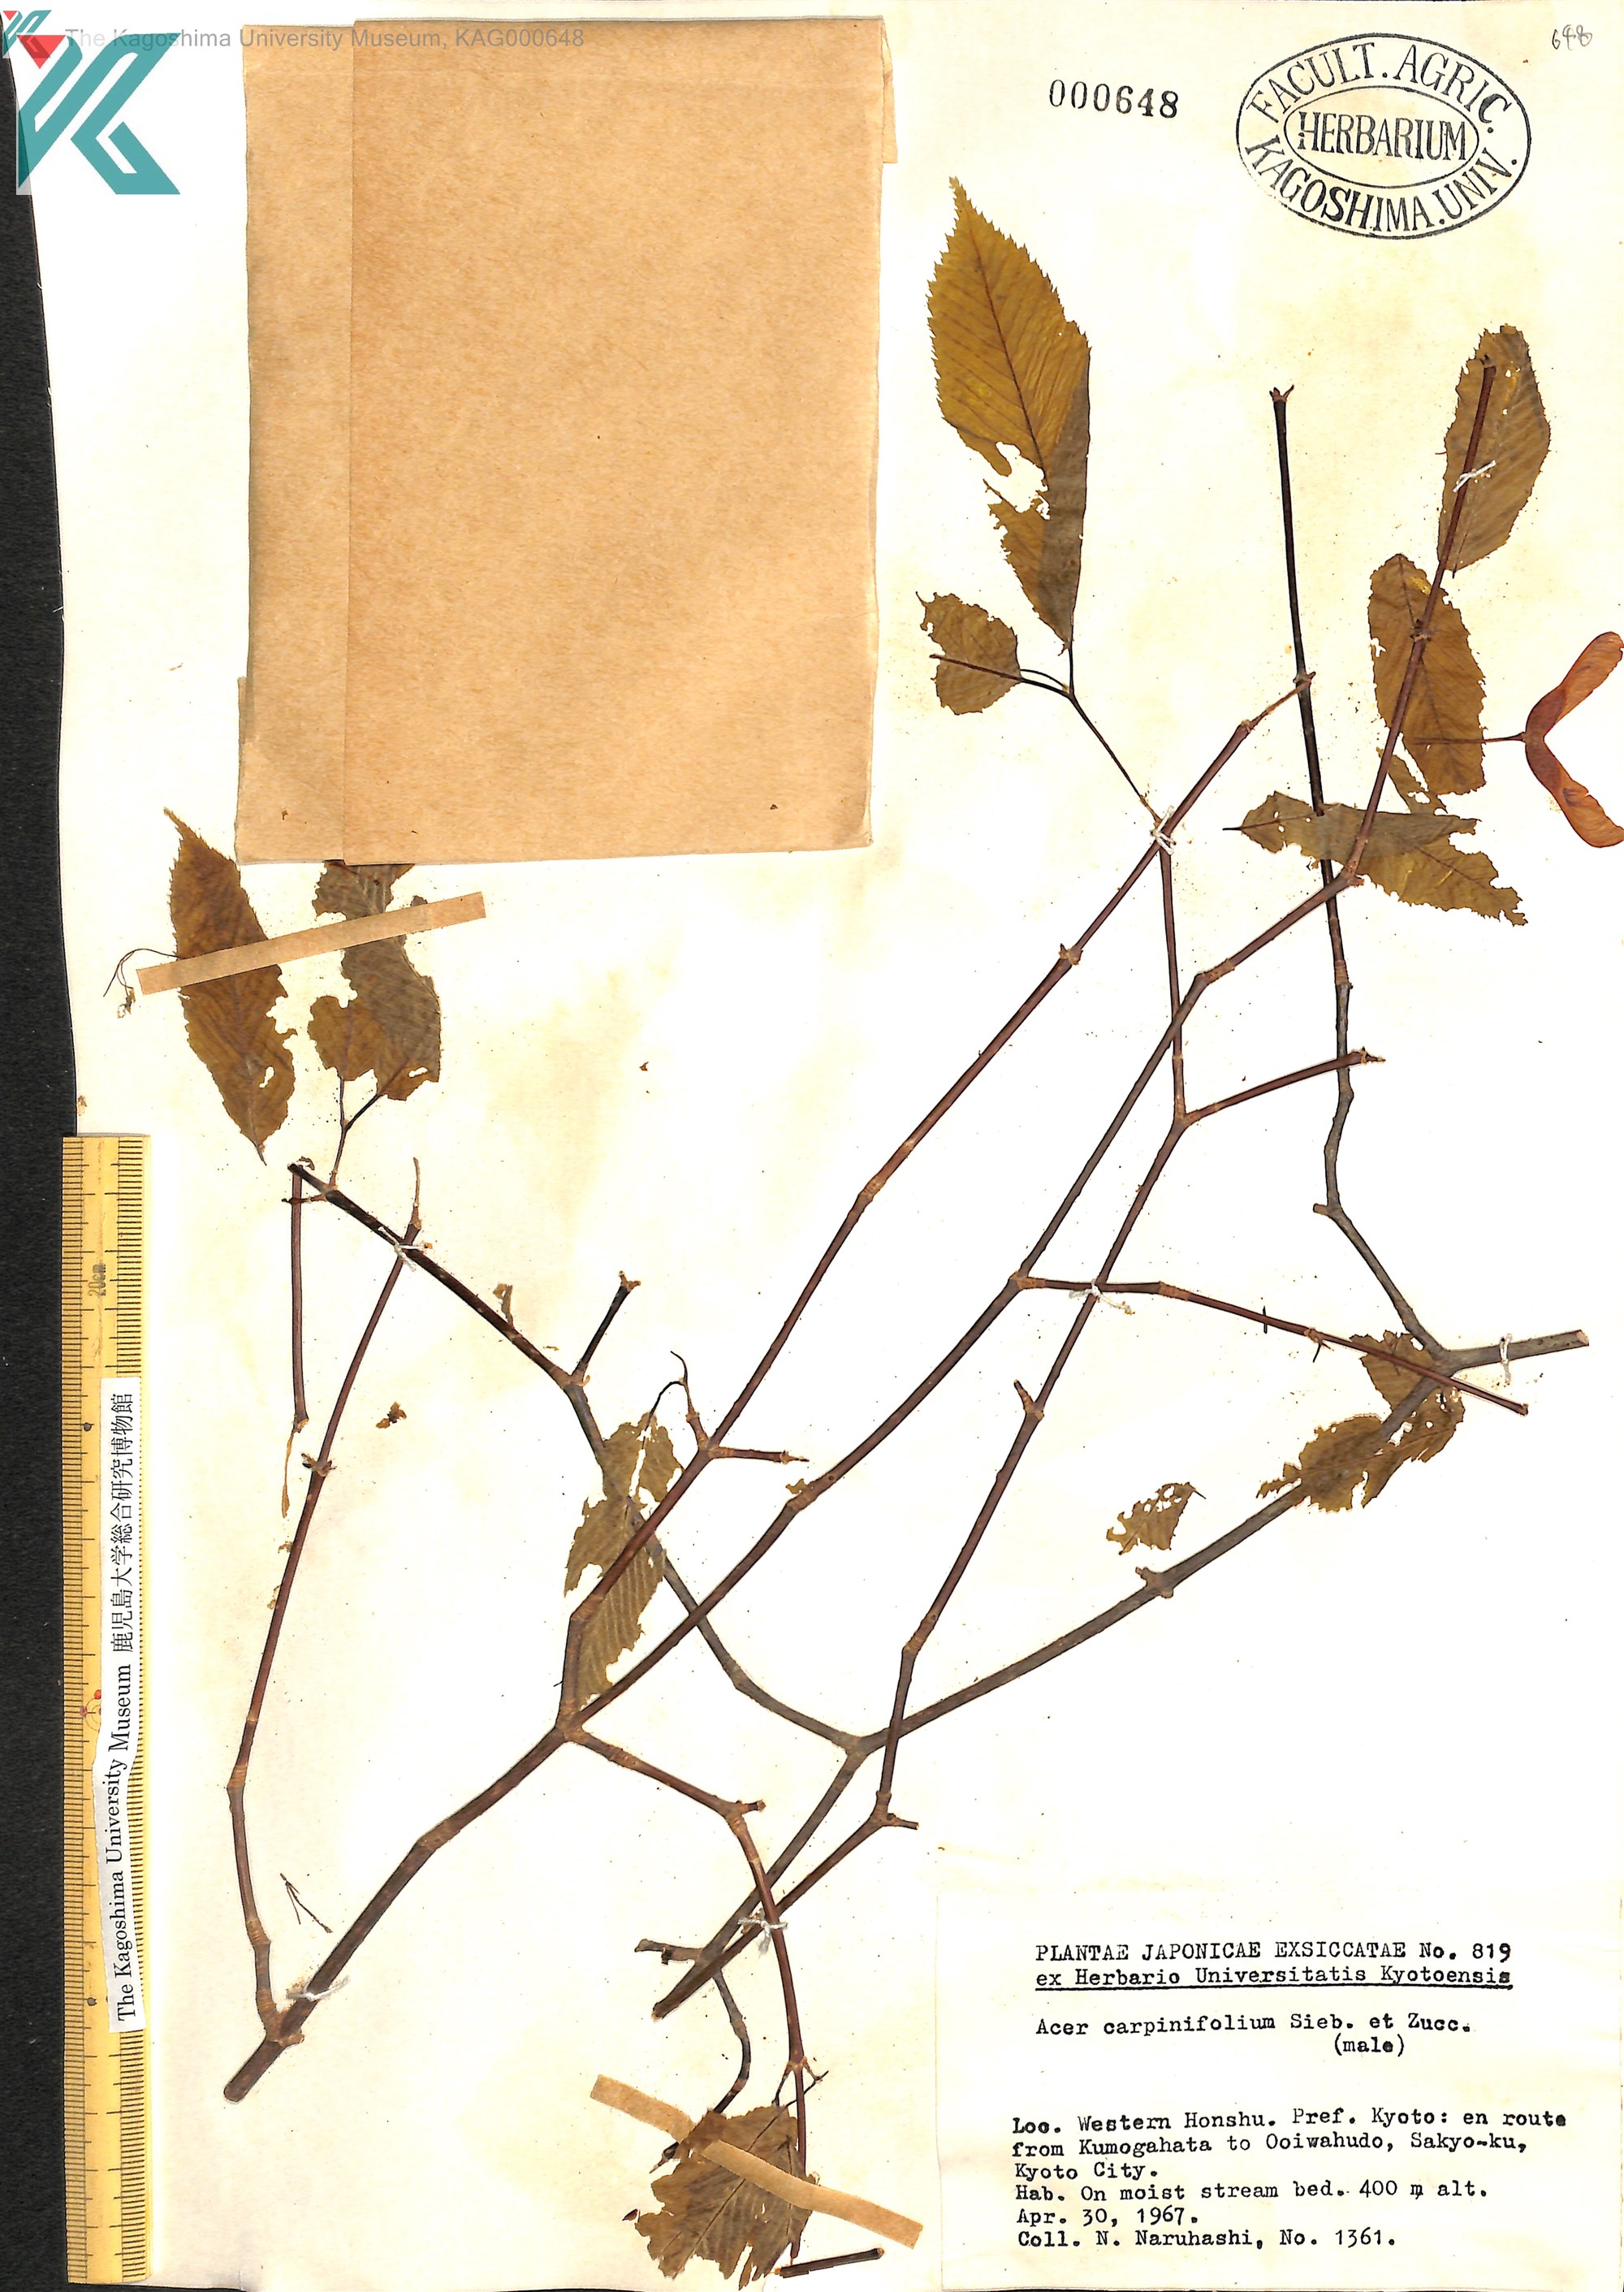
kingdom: Plantae
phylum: Tracheophyta
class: Magnoliopsida
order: Sapindales
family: Sapindaceae
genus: Acer
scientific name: Acer carpinifolium
